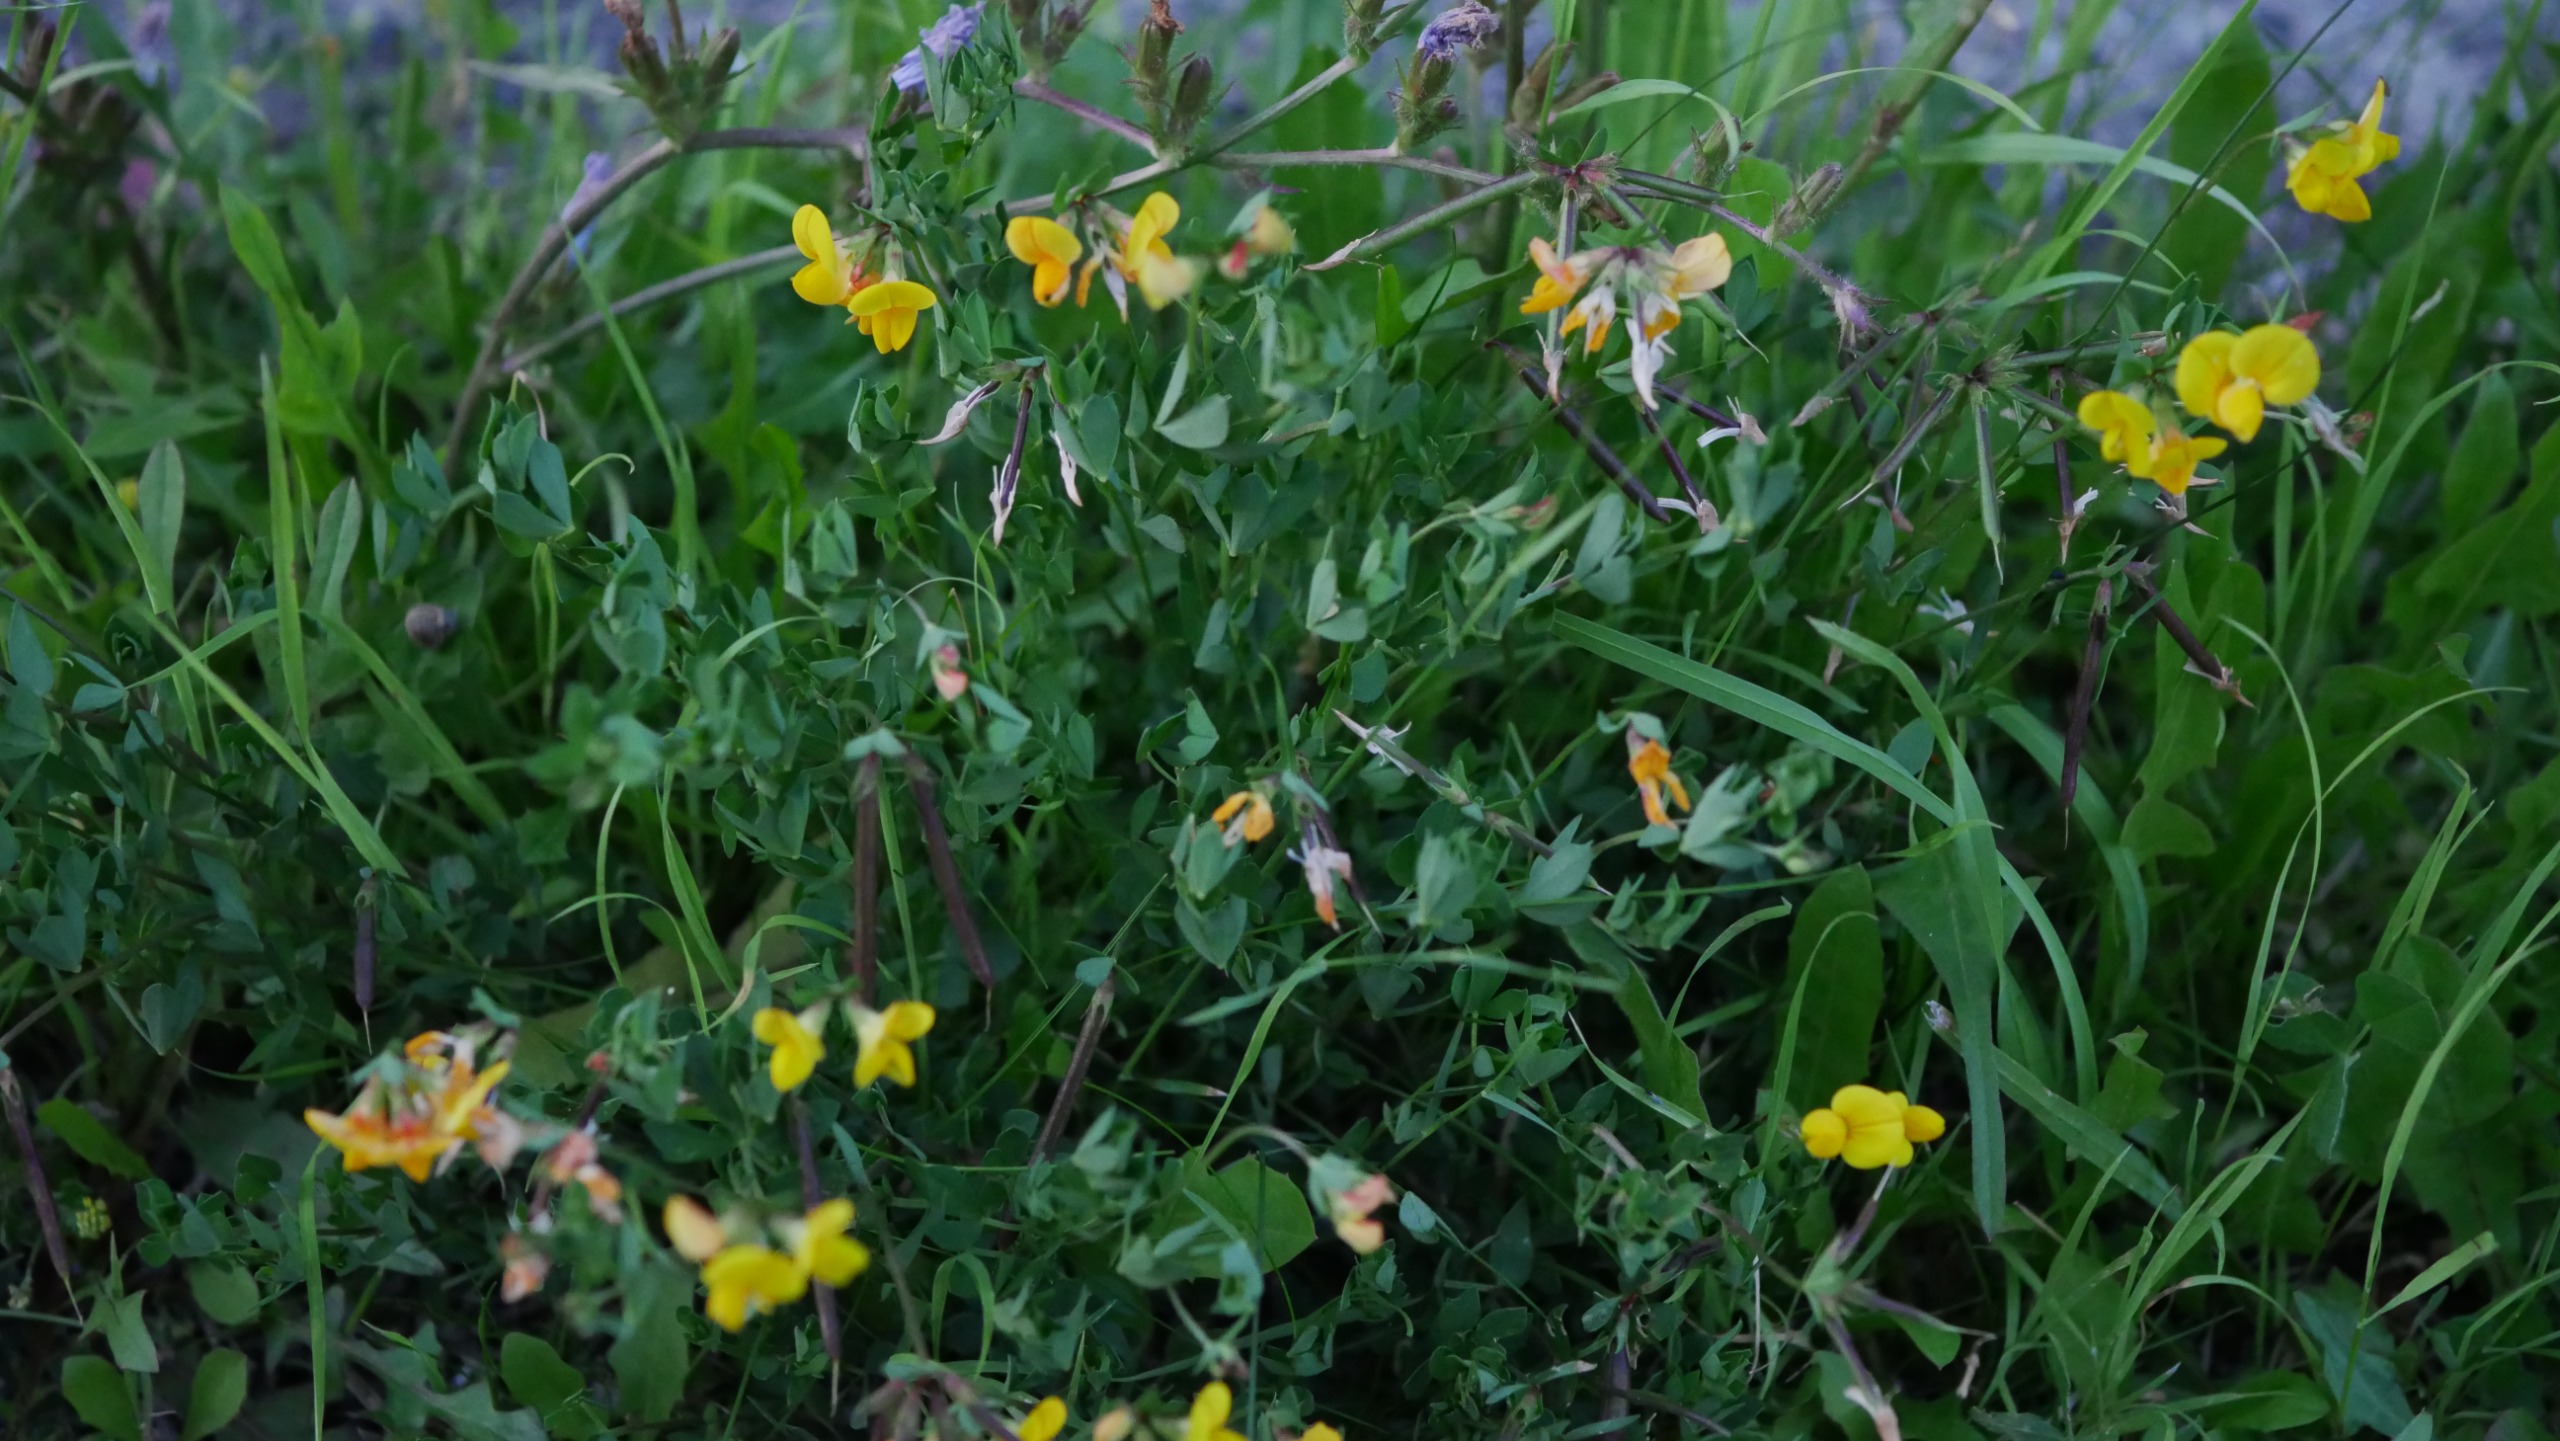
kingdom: Plantae
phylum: Tracheophyta
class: Magnoliopsida
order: Fabales
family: Fabaceae
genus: Lotus
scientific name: Lotus corniculatus
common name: Almindelig kællingetand
